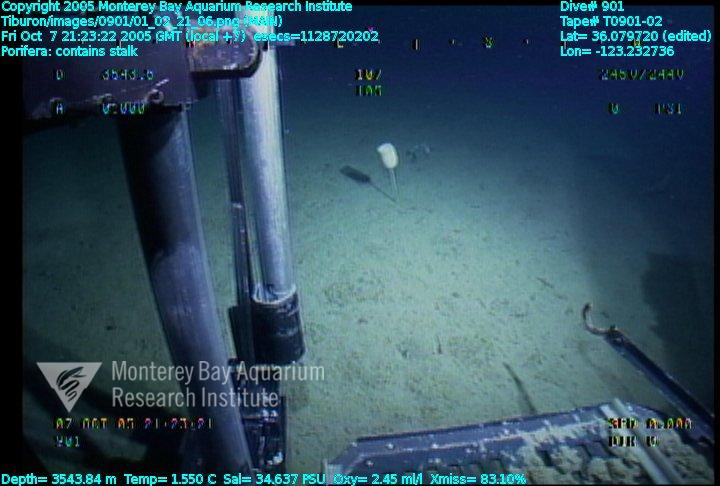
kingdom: Animalia
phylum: Porifera
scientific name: Porifera
